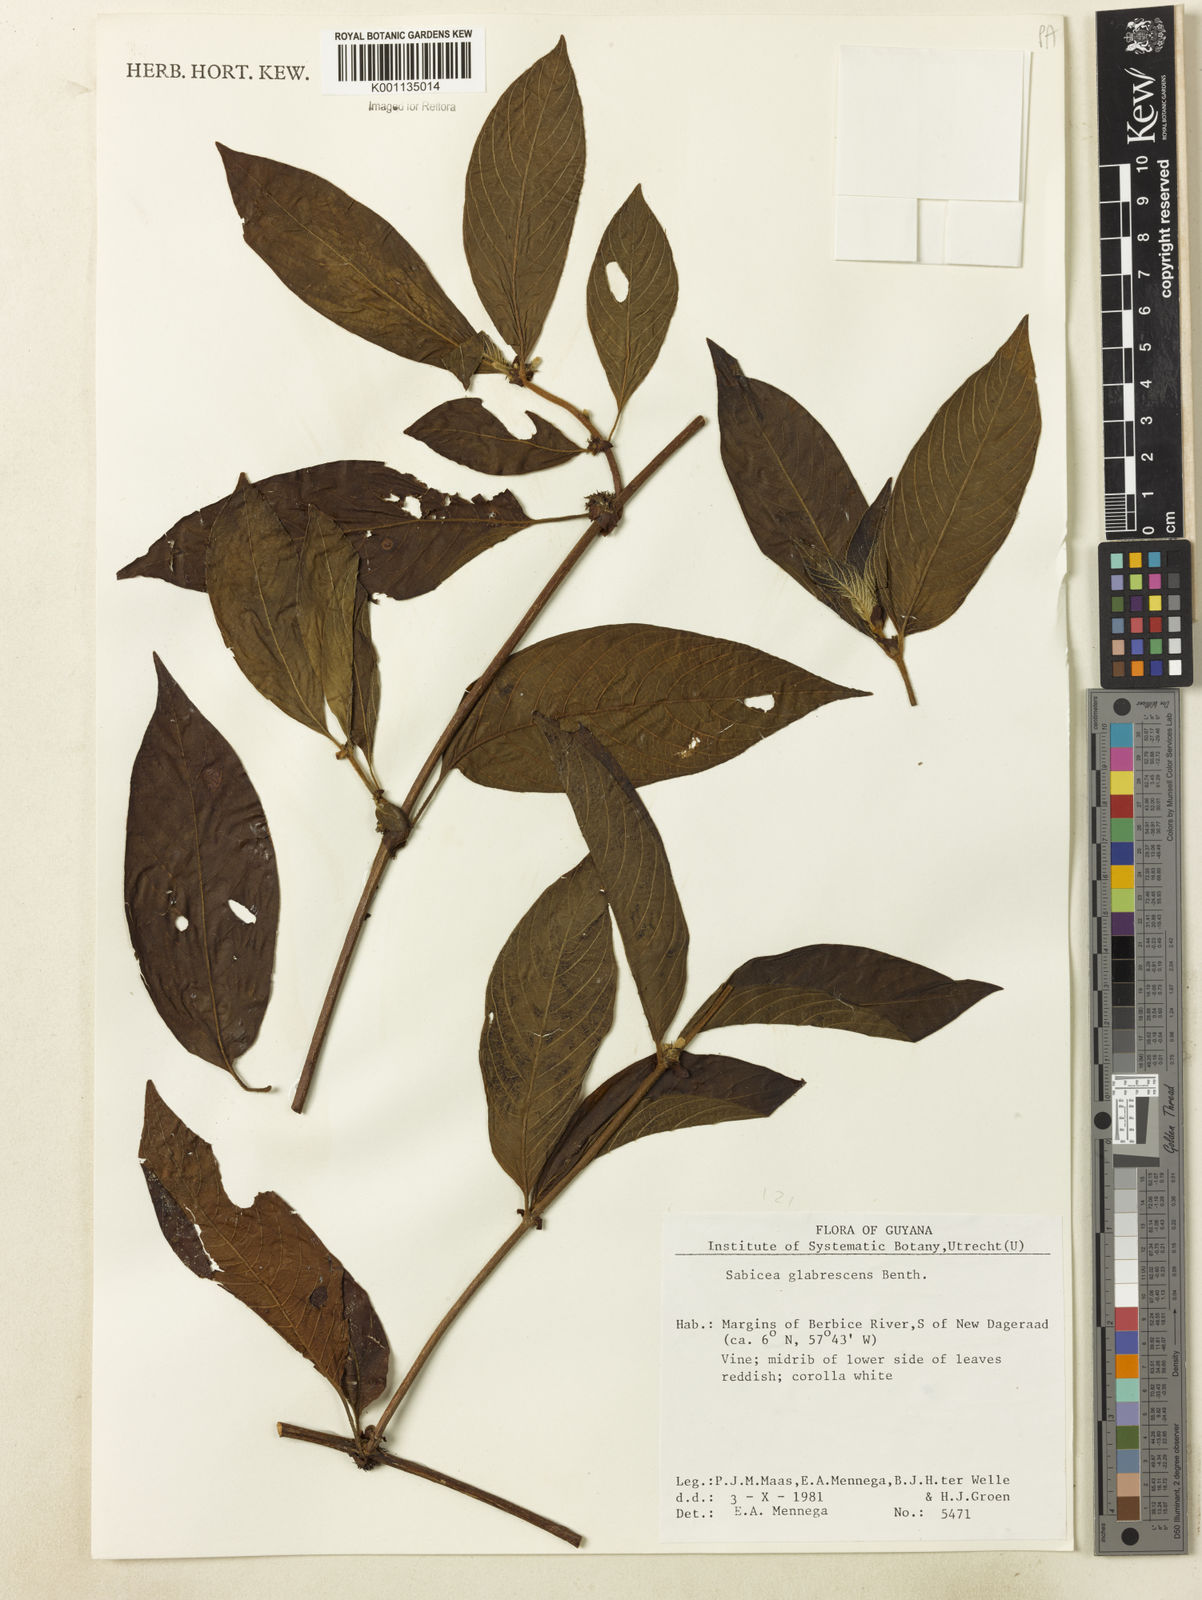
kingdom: Plantae
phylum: Tracheophyta
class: Magnoliopsida
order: Gentianales
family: Rubiaceae
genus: Sabicea
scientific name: Sabicea glabrescens
